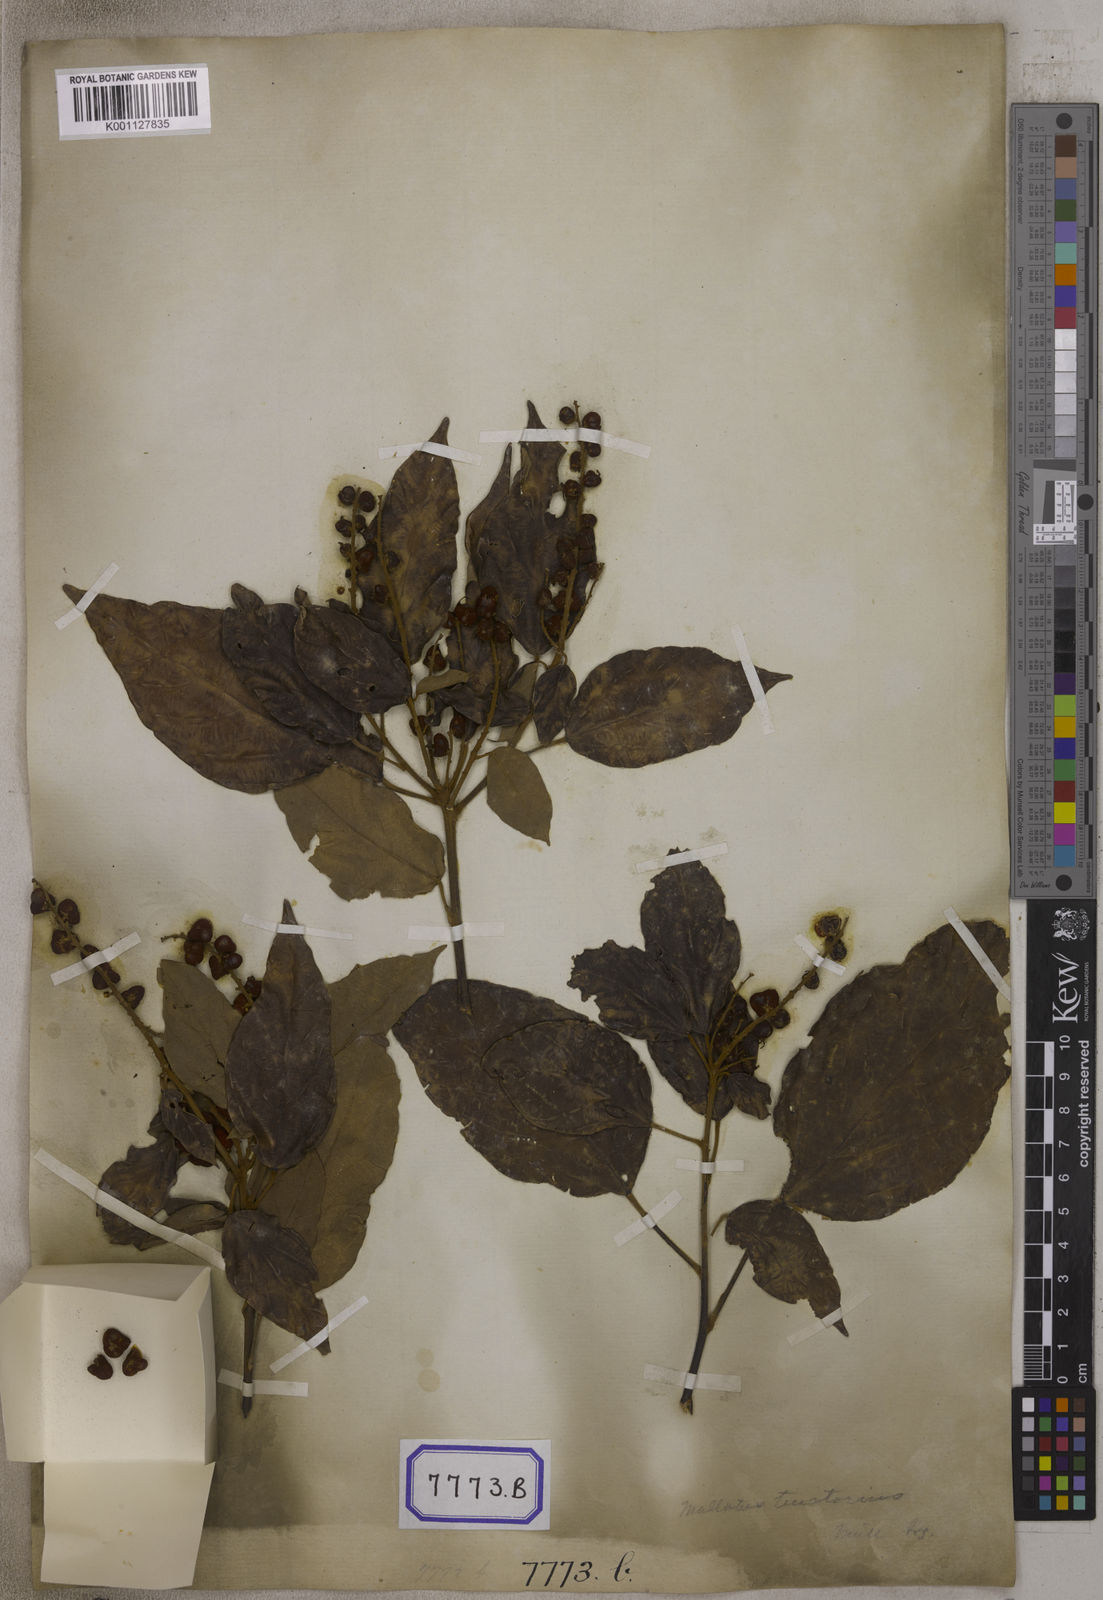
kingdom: Plantae
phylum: Tracheophyta
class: Magnoliopsida
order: Malpighiales
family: Euphorbiaceae
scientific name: Euphorbiaceae
